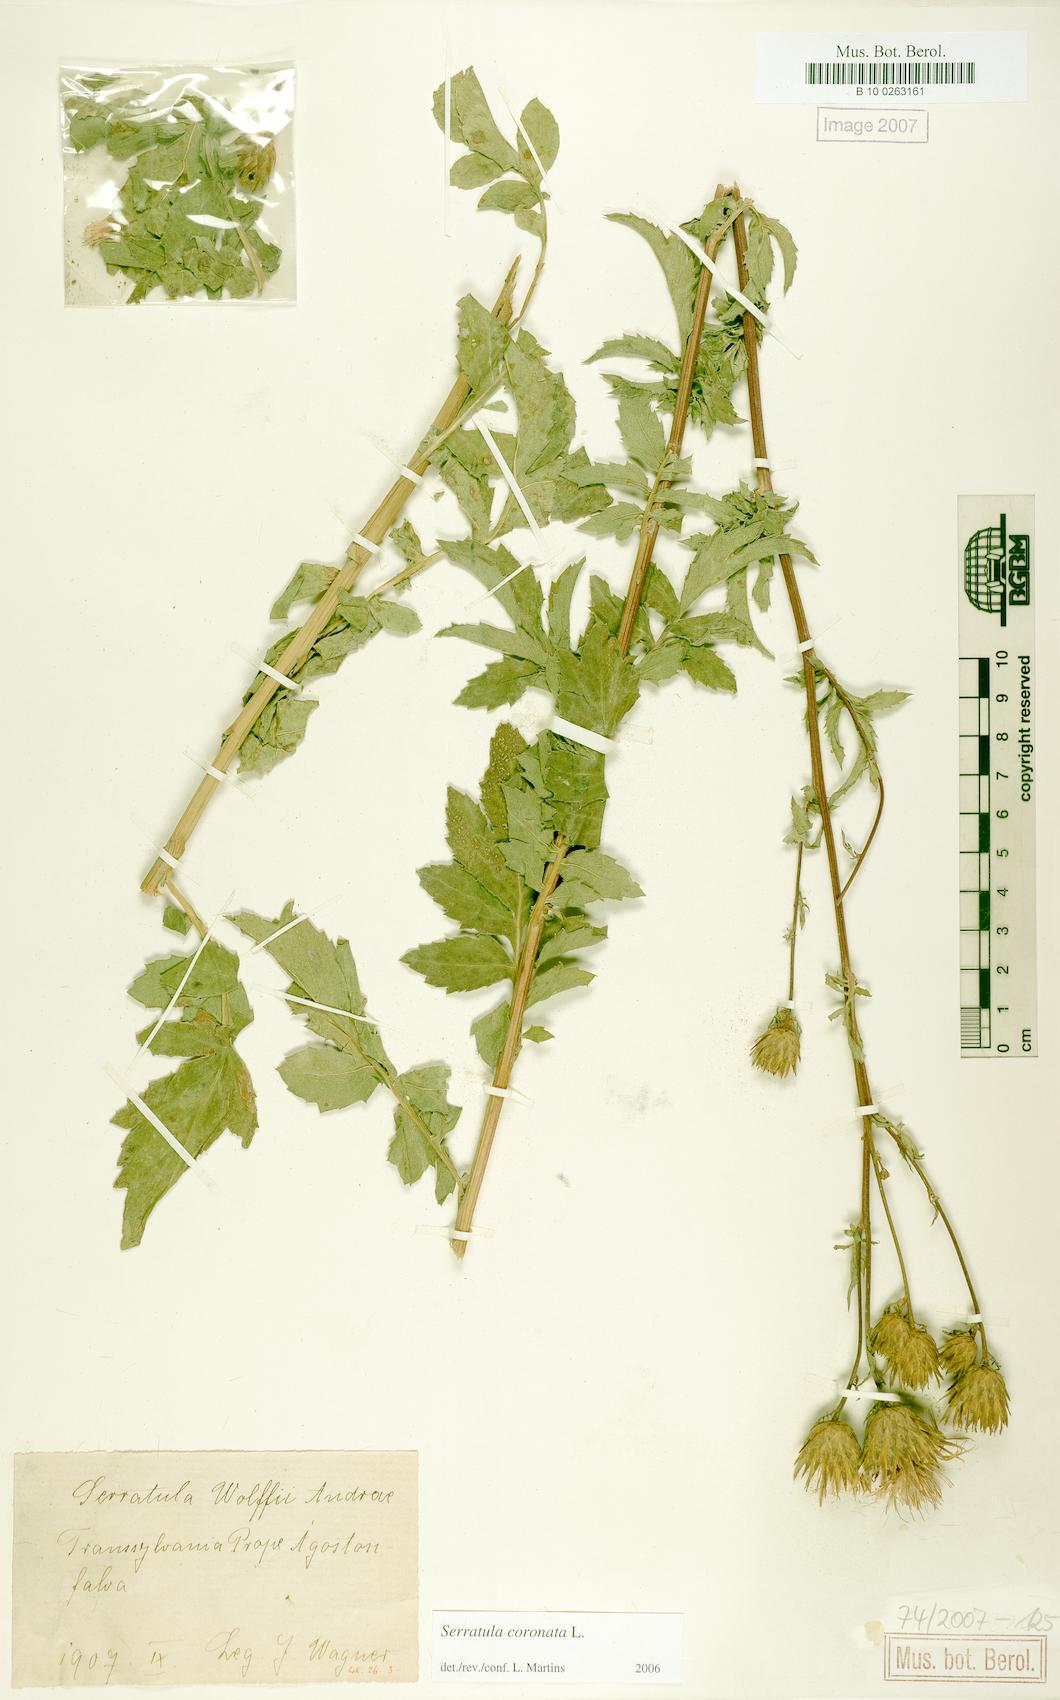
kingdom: Plantae
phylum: Tracheophyta
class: Magnoliopsida
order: Asterales
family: Asteraceae
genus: Serratula
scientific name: Serratula coronata
